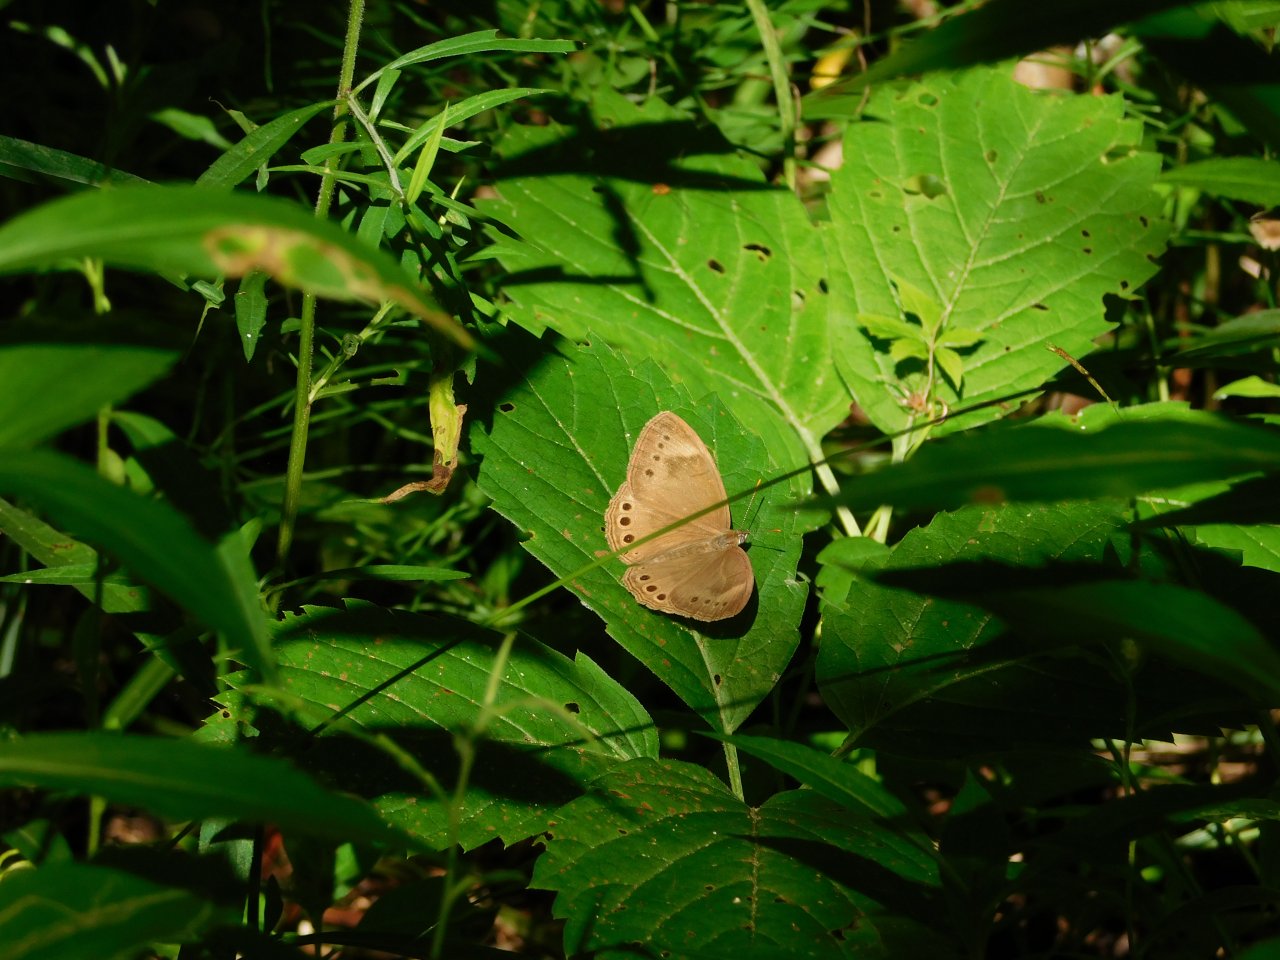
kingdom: Animalia
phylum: Arthropoda
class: Insecta
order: Lepidoptera
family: Nymphalidae
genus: Lethe
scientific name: Lethe eurydice
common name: Appalachian Eyed Brown
